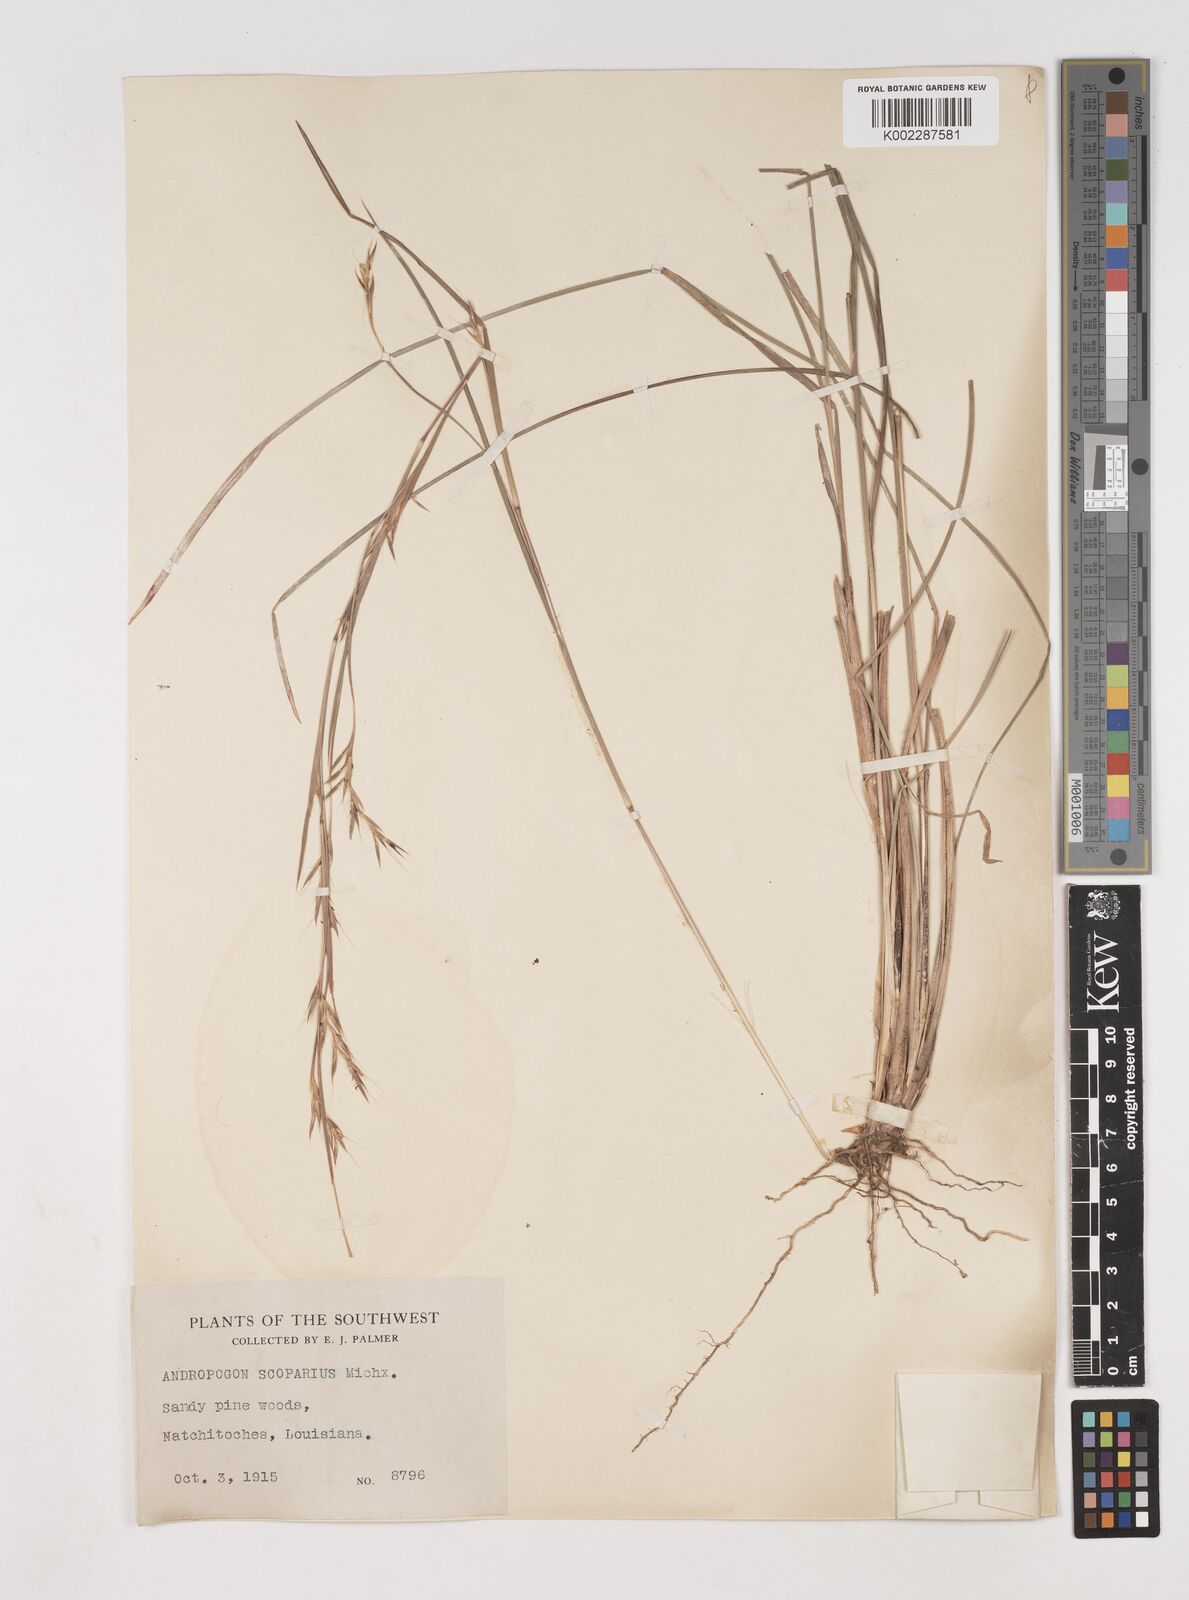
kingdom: Plantae
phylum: Tracheophyta
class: Liliopsida
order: Poales
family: Poaceae
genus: Schizachyrium
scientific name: Schizachyrium scoparium
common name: Little bluestem
